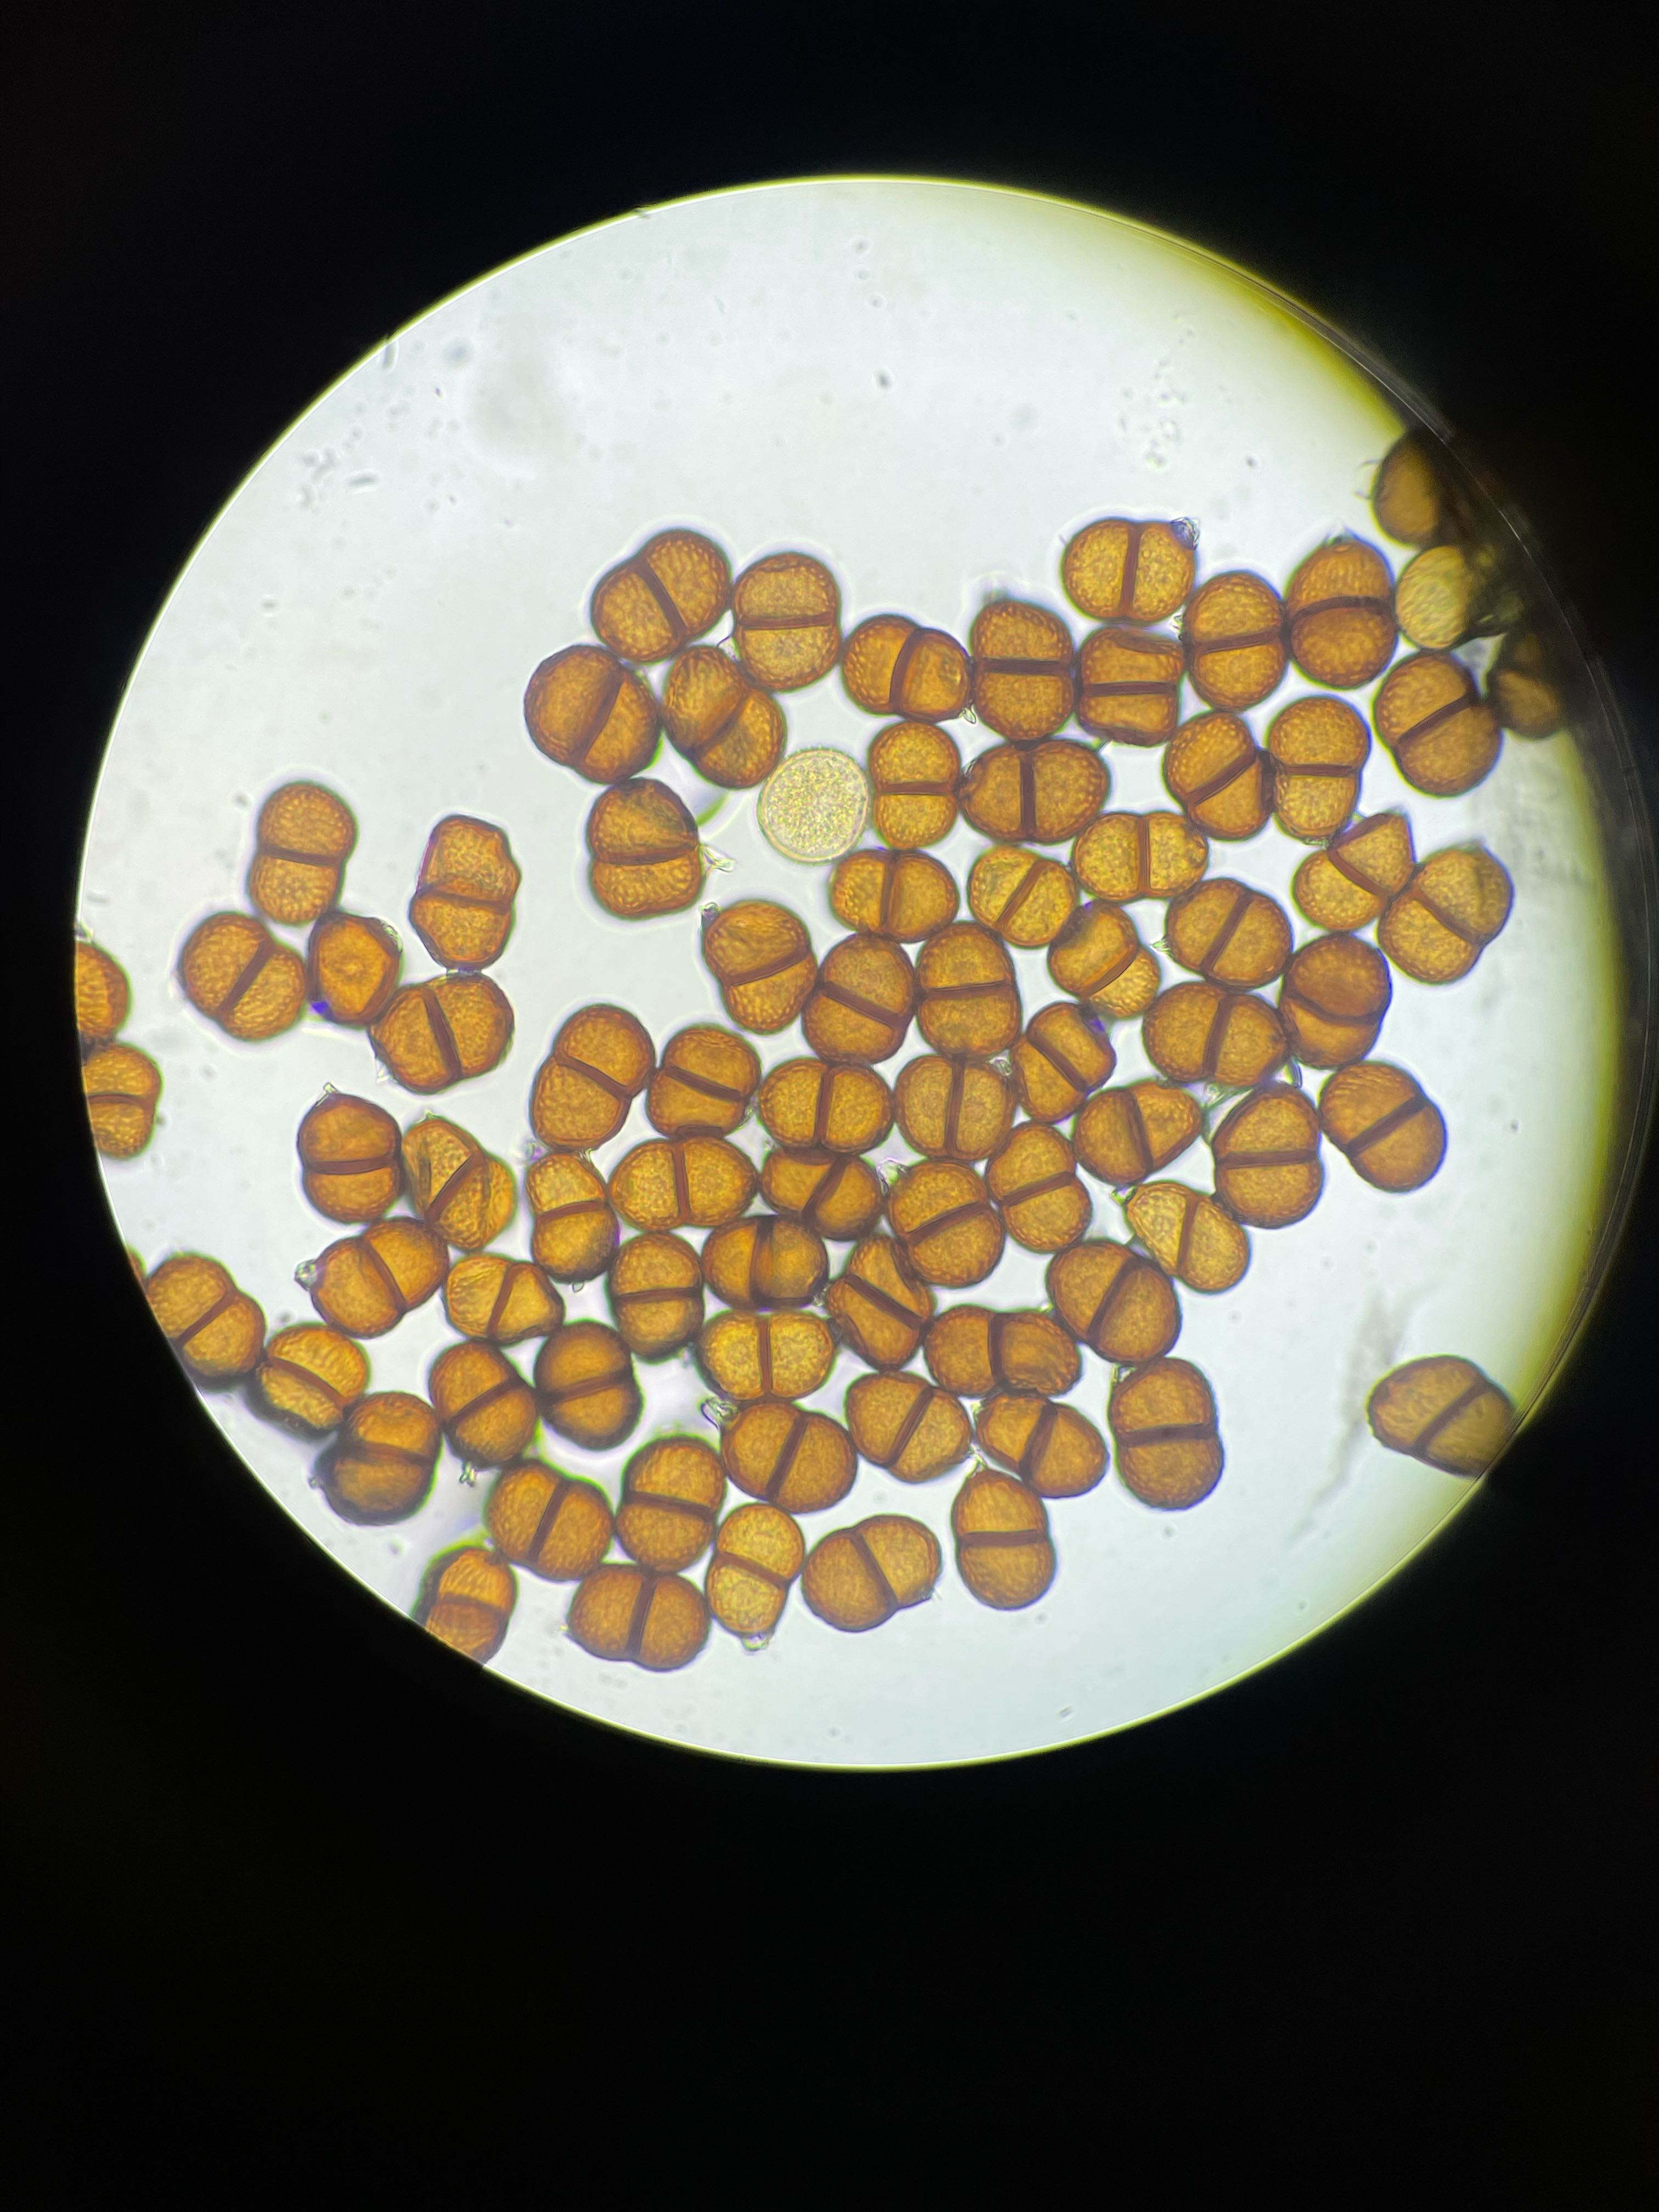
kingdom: Fungi
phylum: Basidiomycota
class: Pucciniomycetes
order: Pucciniales
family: Pucciniaceae
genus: Puccinia
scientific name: Puccinia chaerophylli
